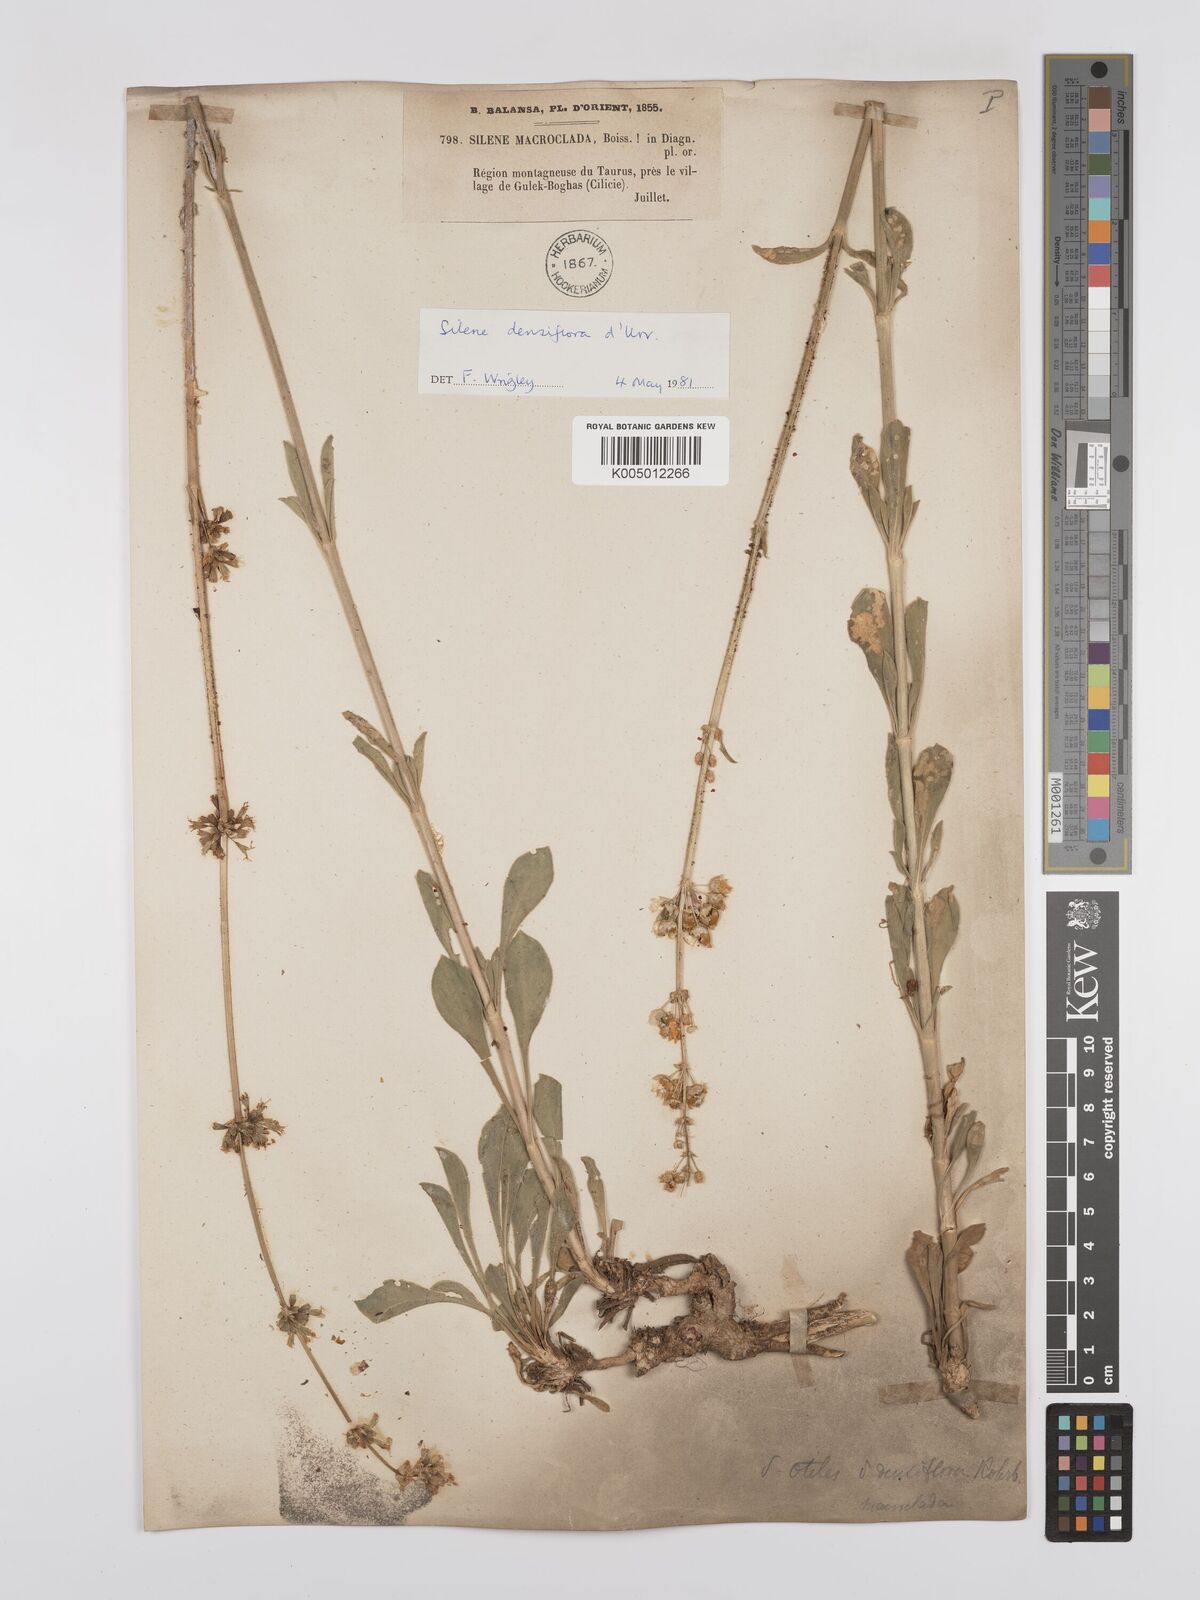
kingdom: Plantae
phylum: Tracheophyta
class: Magnoliopsida
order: Caryophyllales
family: Caryophyllaceae
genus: Silene
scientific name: Silene densiflora
